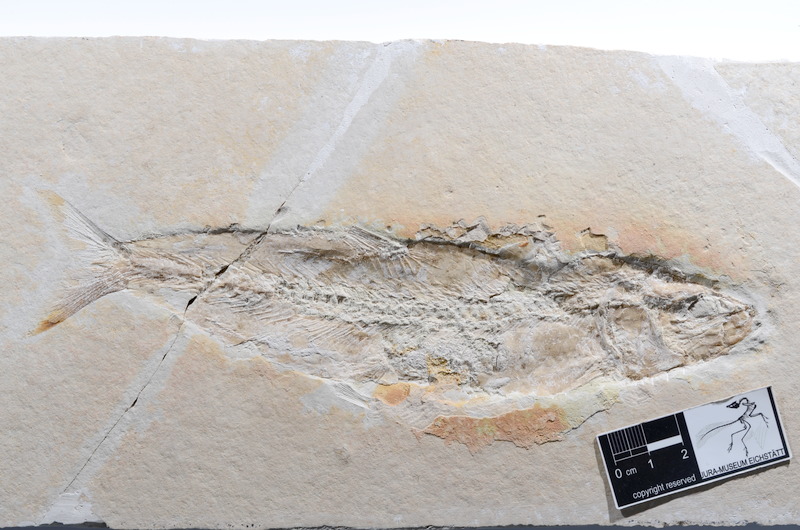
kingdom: Animalia
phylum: Chordata
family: Ascalaboidae
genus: Tharsis
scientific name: Tharsis dubius
